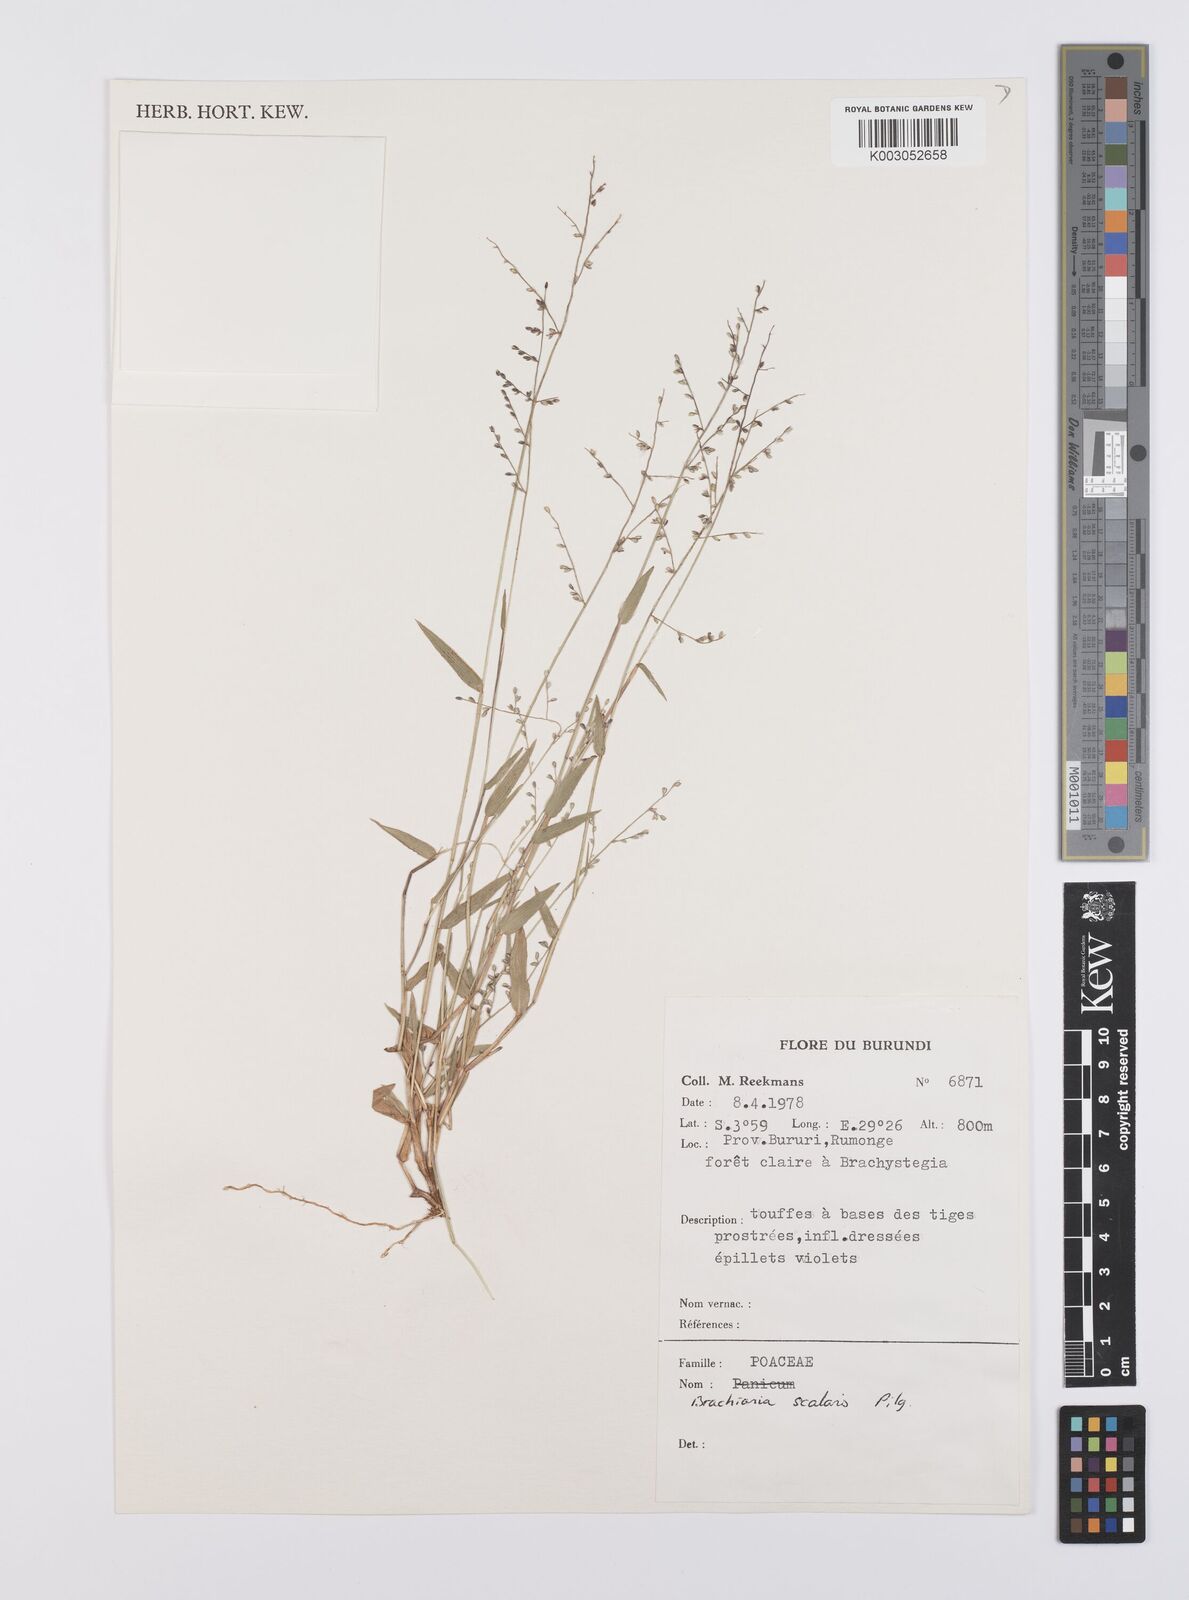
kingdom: Plantae
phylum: Tracheophyta
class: Liliopsida
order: Poales
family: Poaceae
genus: Urochloa
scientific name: Urochloa comata
